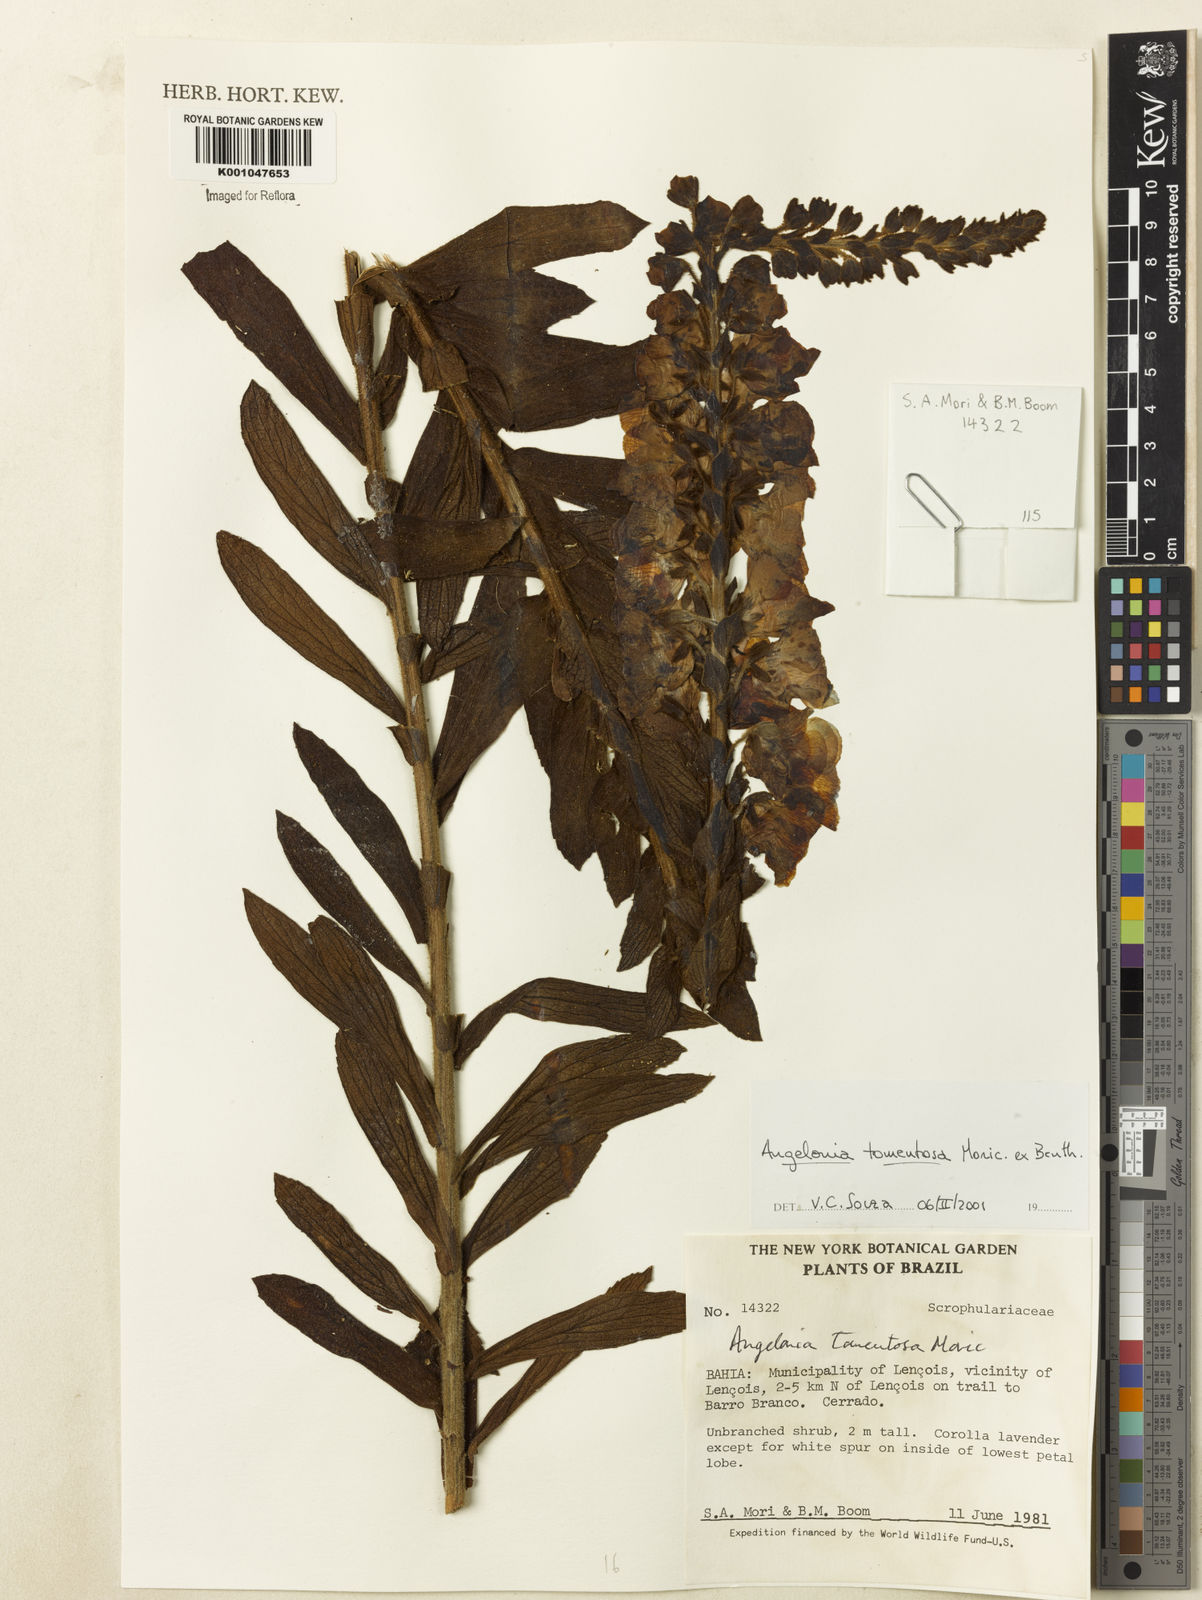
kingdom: Plantae
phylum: Tracheophyta
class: Magnoliopsida
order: Lamiales
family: Plantaginaceae
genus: Angelonia
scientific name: Angelonia tomentosa
